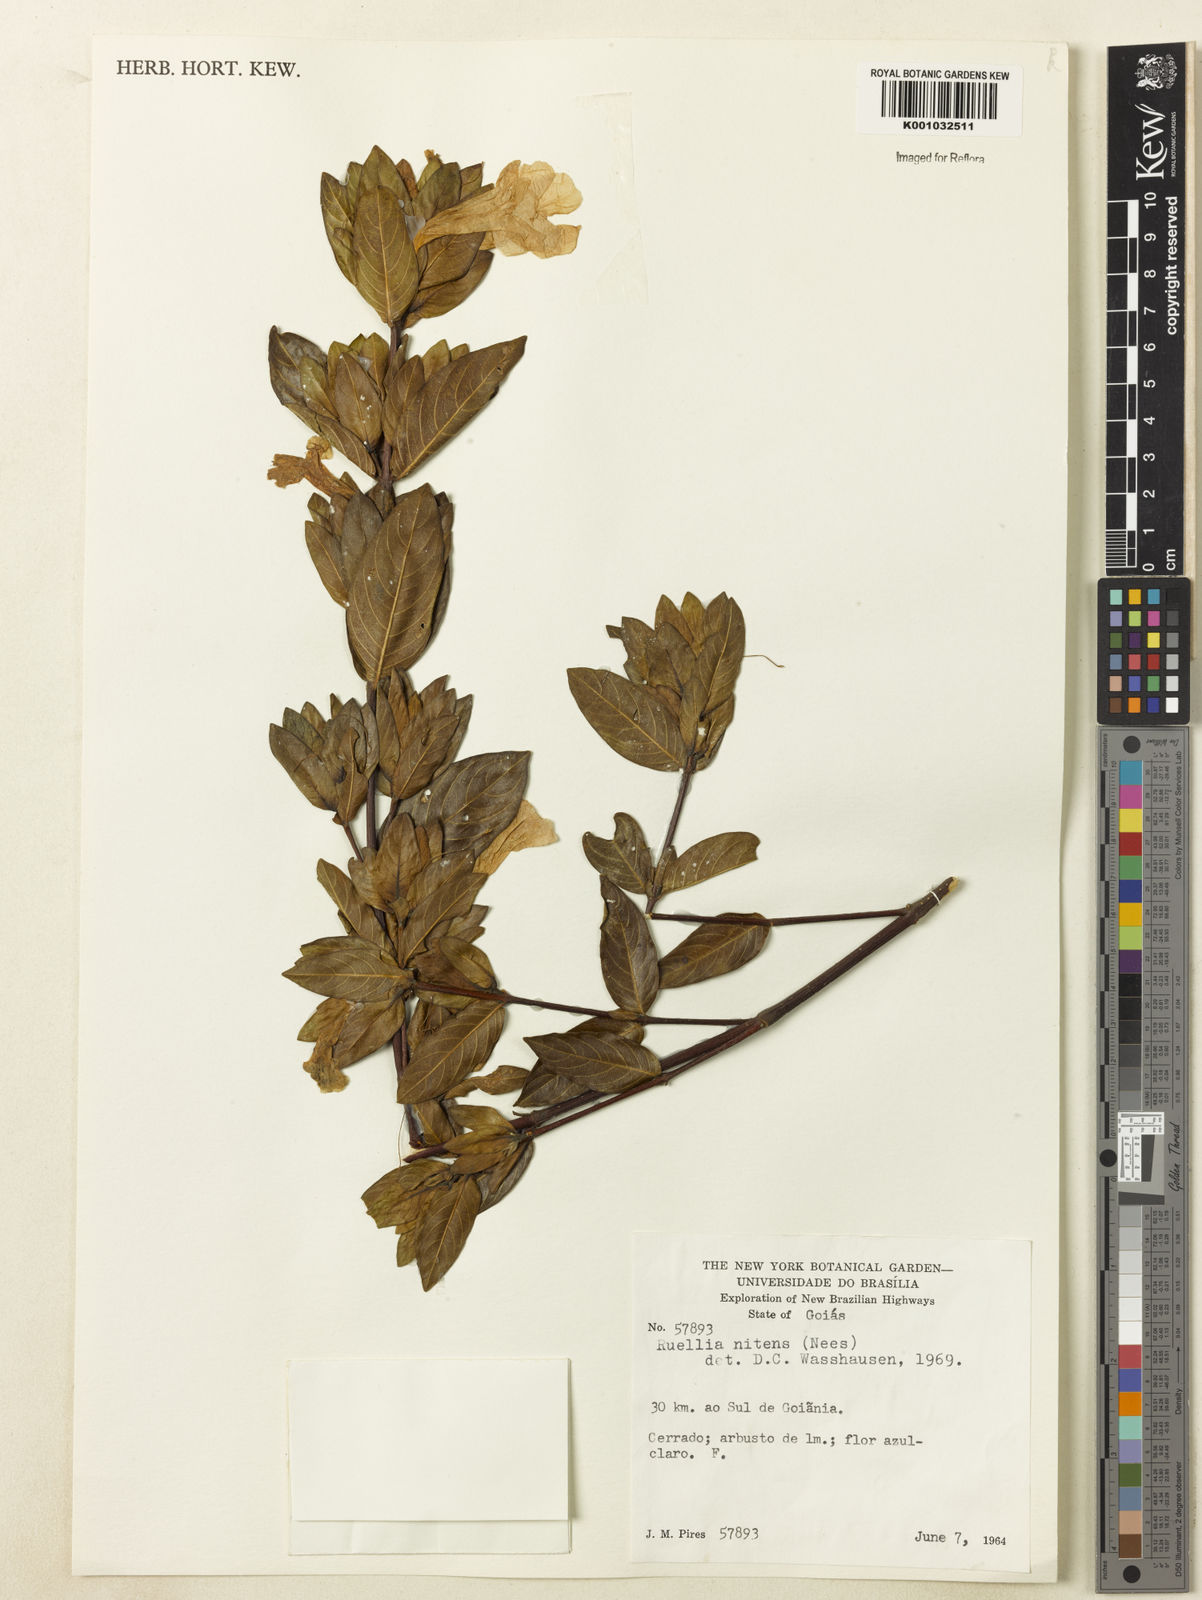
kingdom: Plantae
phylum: Tracheophyta
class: Magnoliopsida
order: Lamiales
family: Acanthaceae
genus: Ruellia
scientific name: Ruellia nitens
